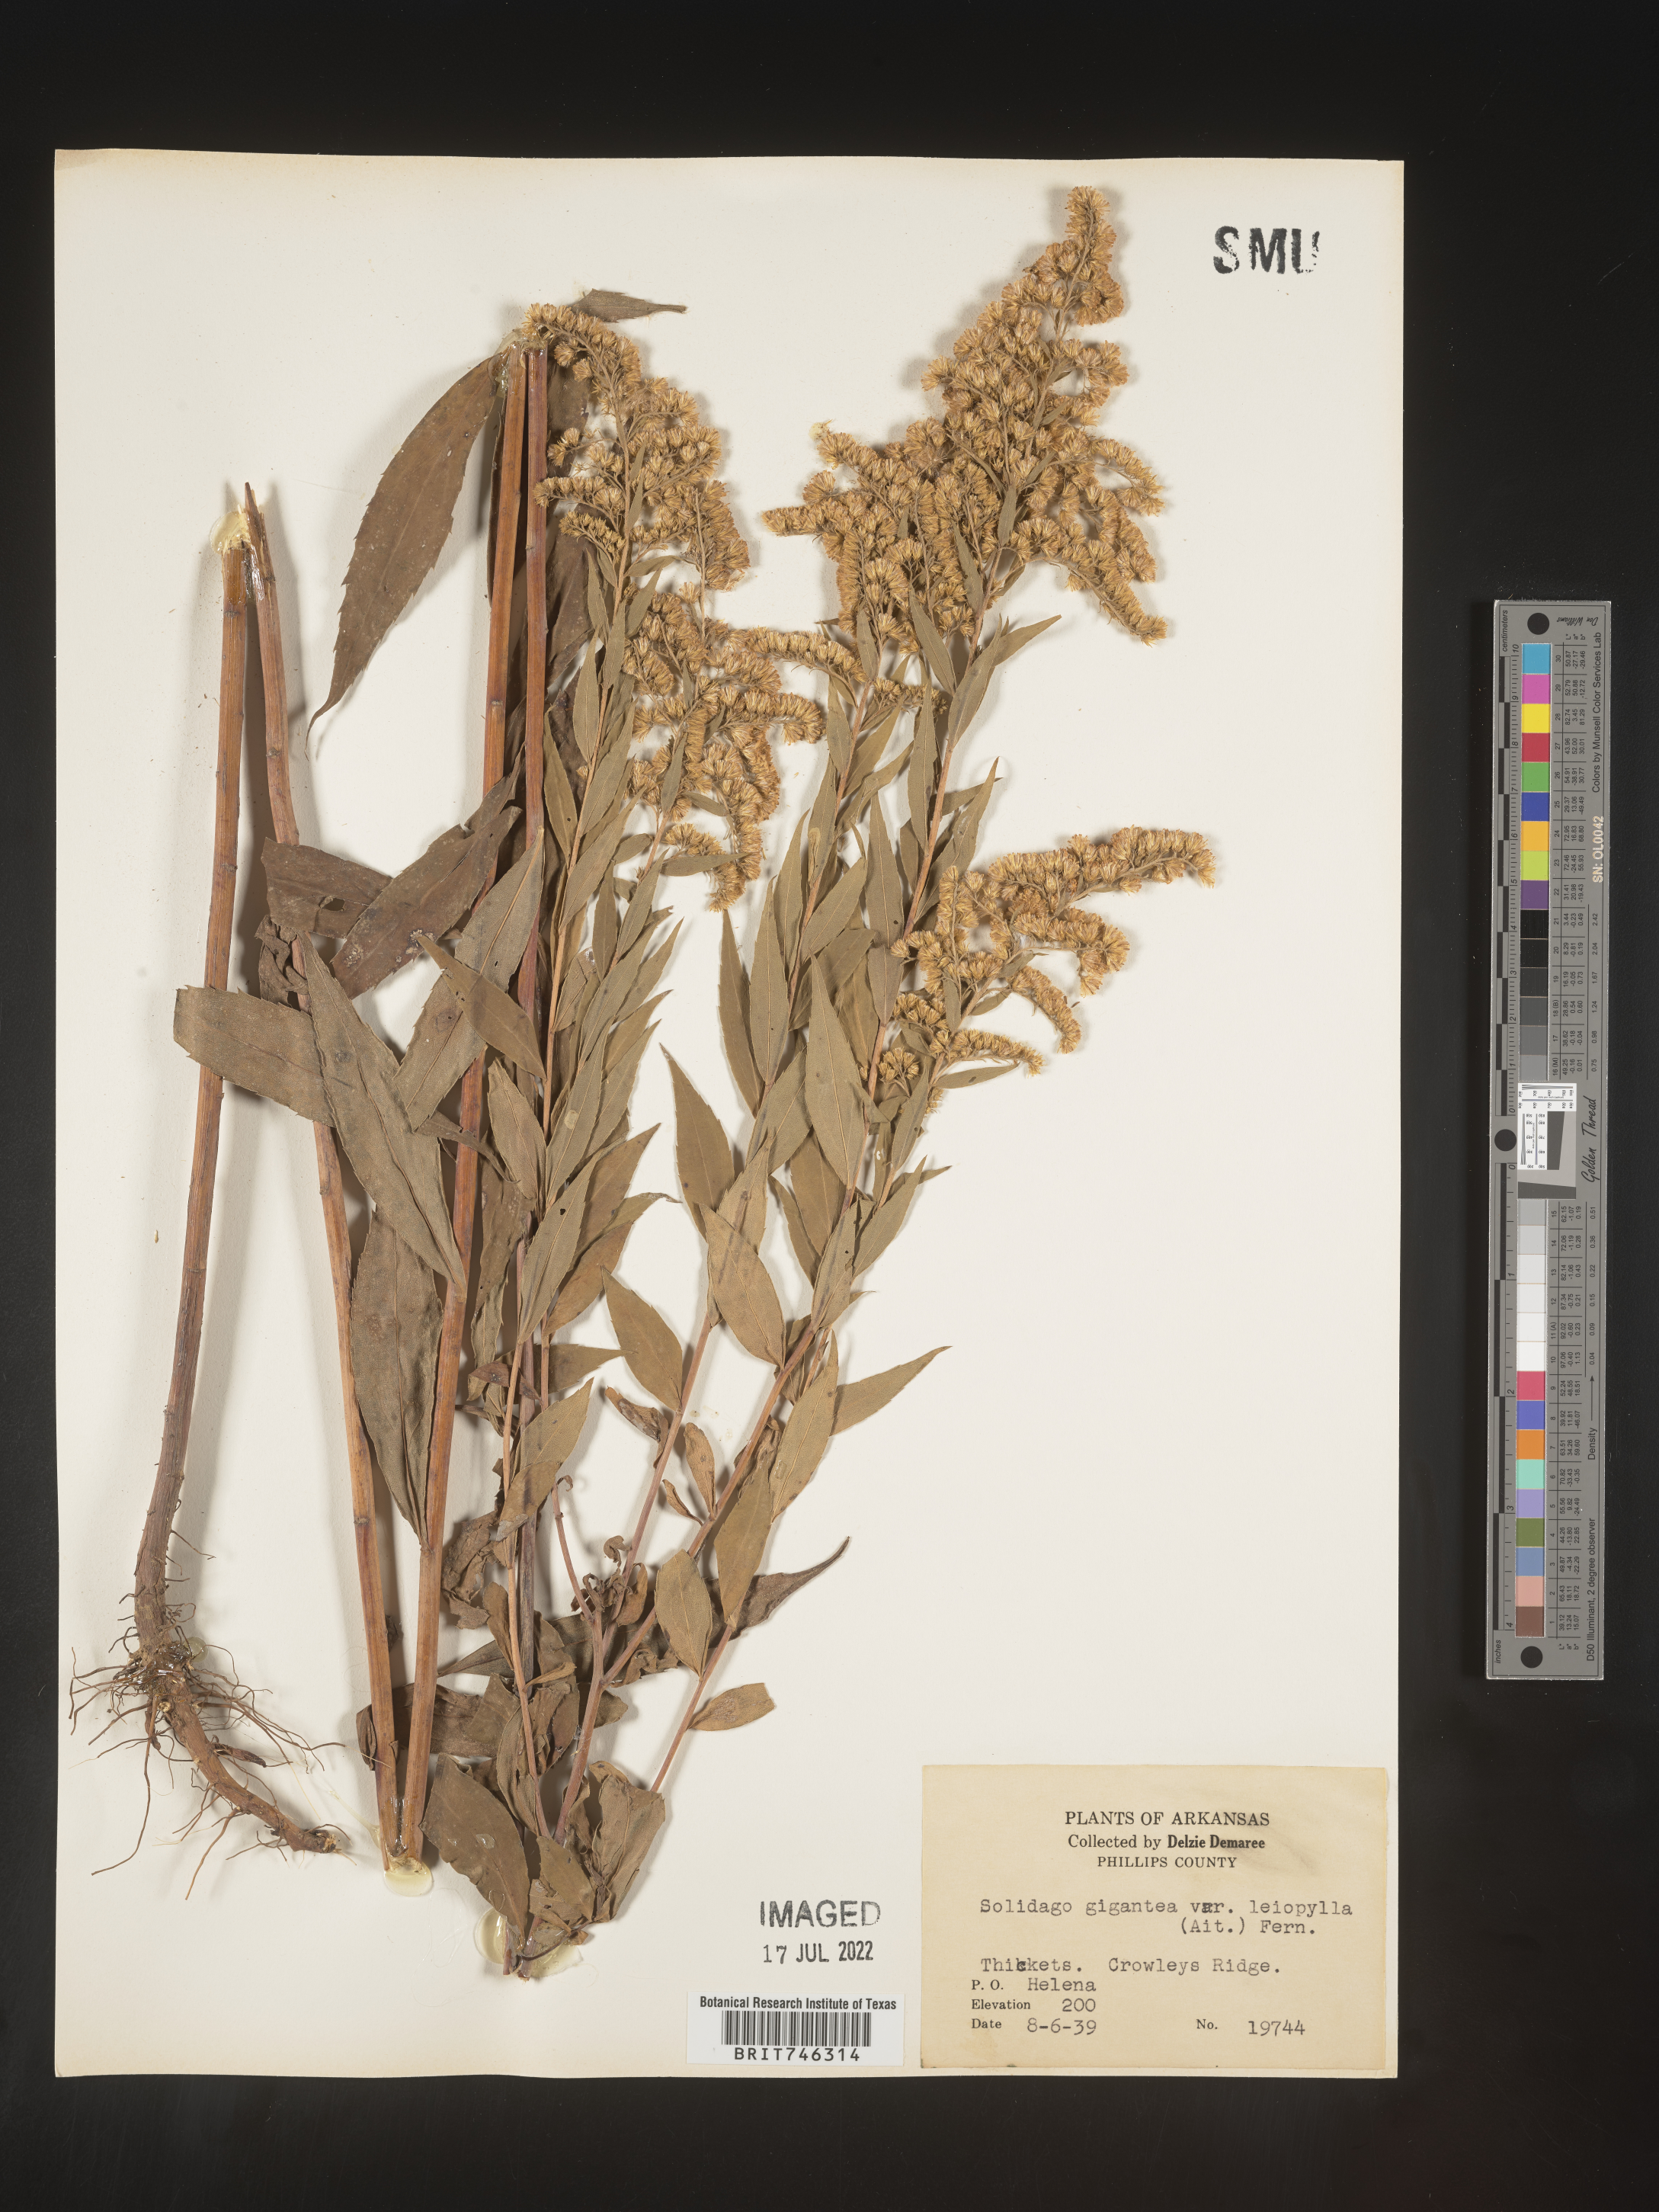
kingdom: Plantae
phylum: Tracheophyta
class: Magnoliopsida
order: Asterales
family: Asteraceae
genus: Solidago
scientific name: Solidago gigantea
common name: Giant goldenrod
